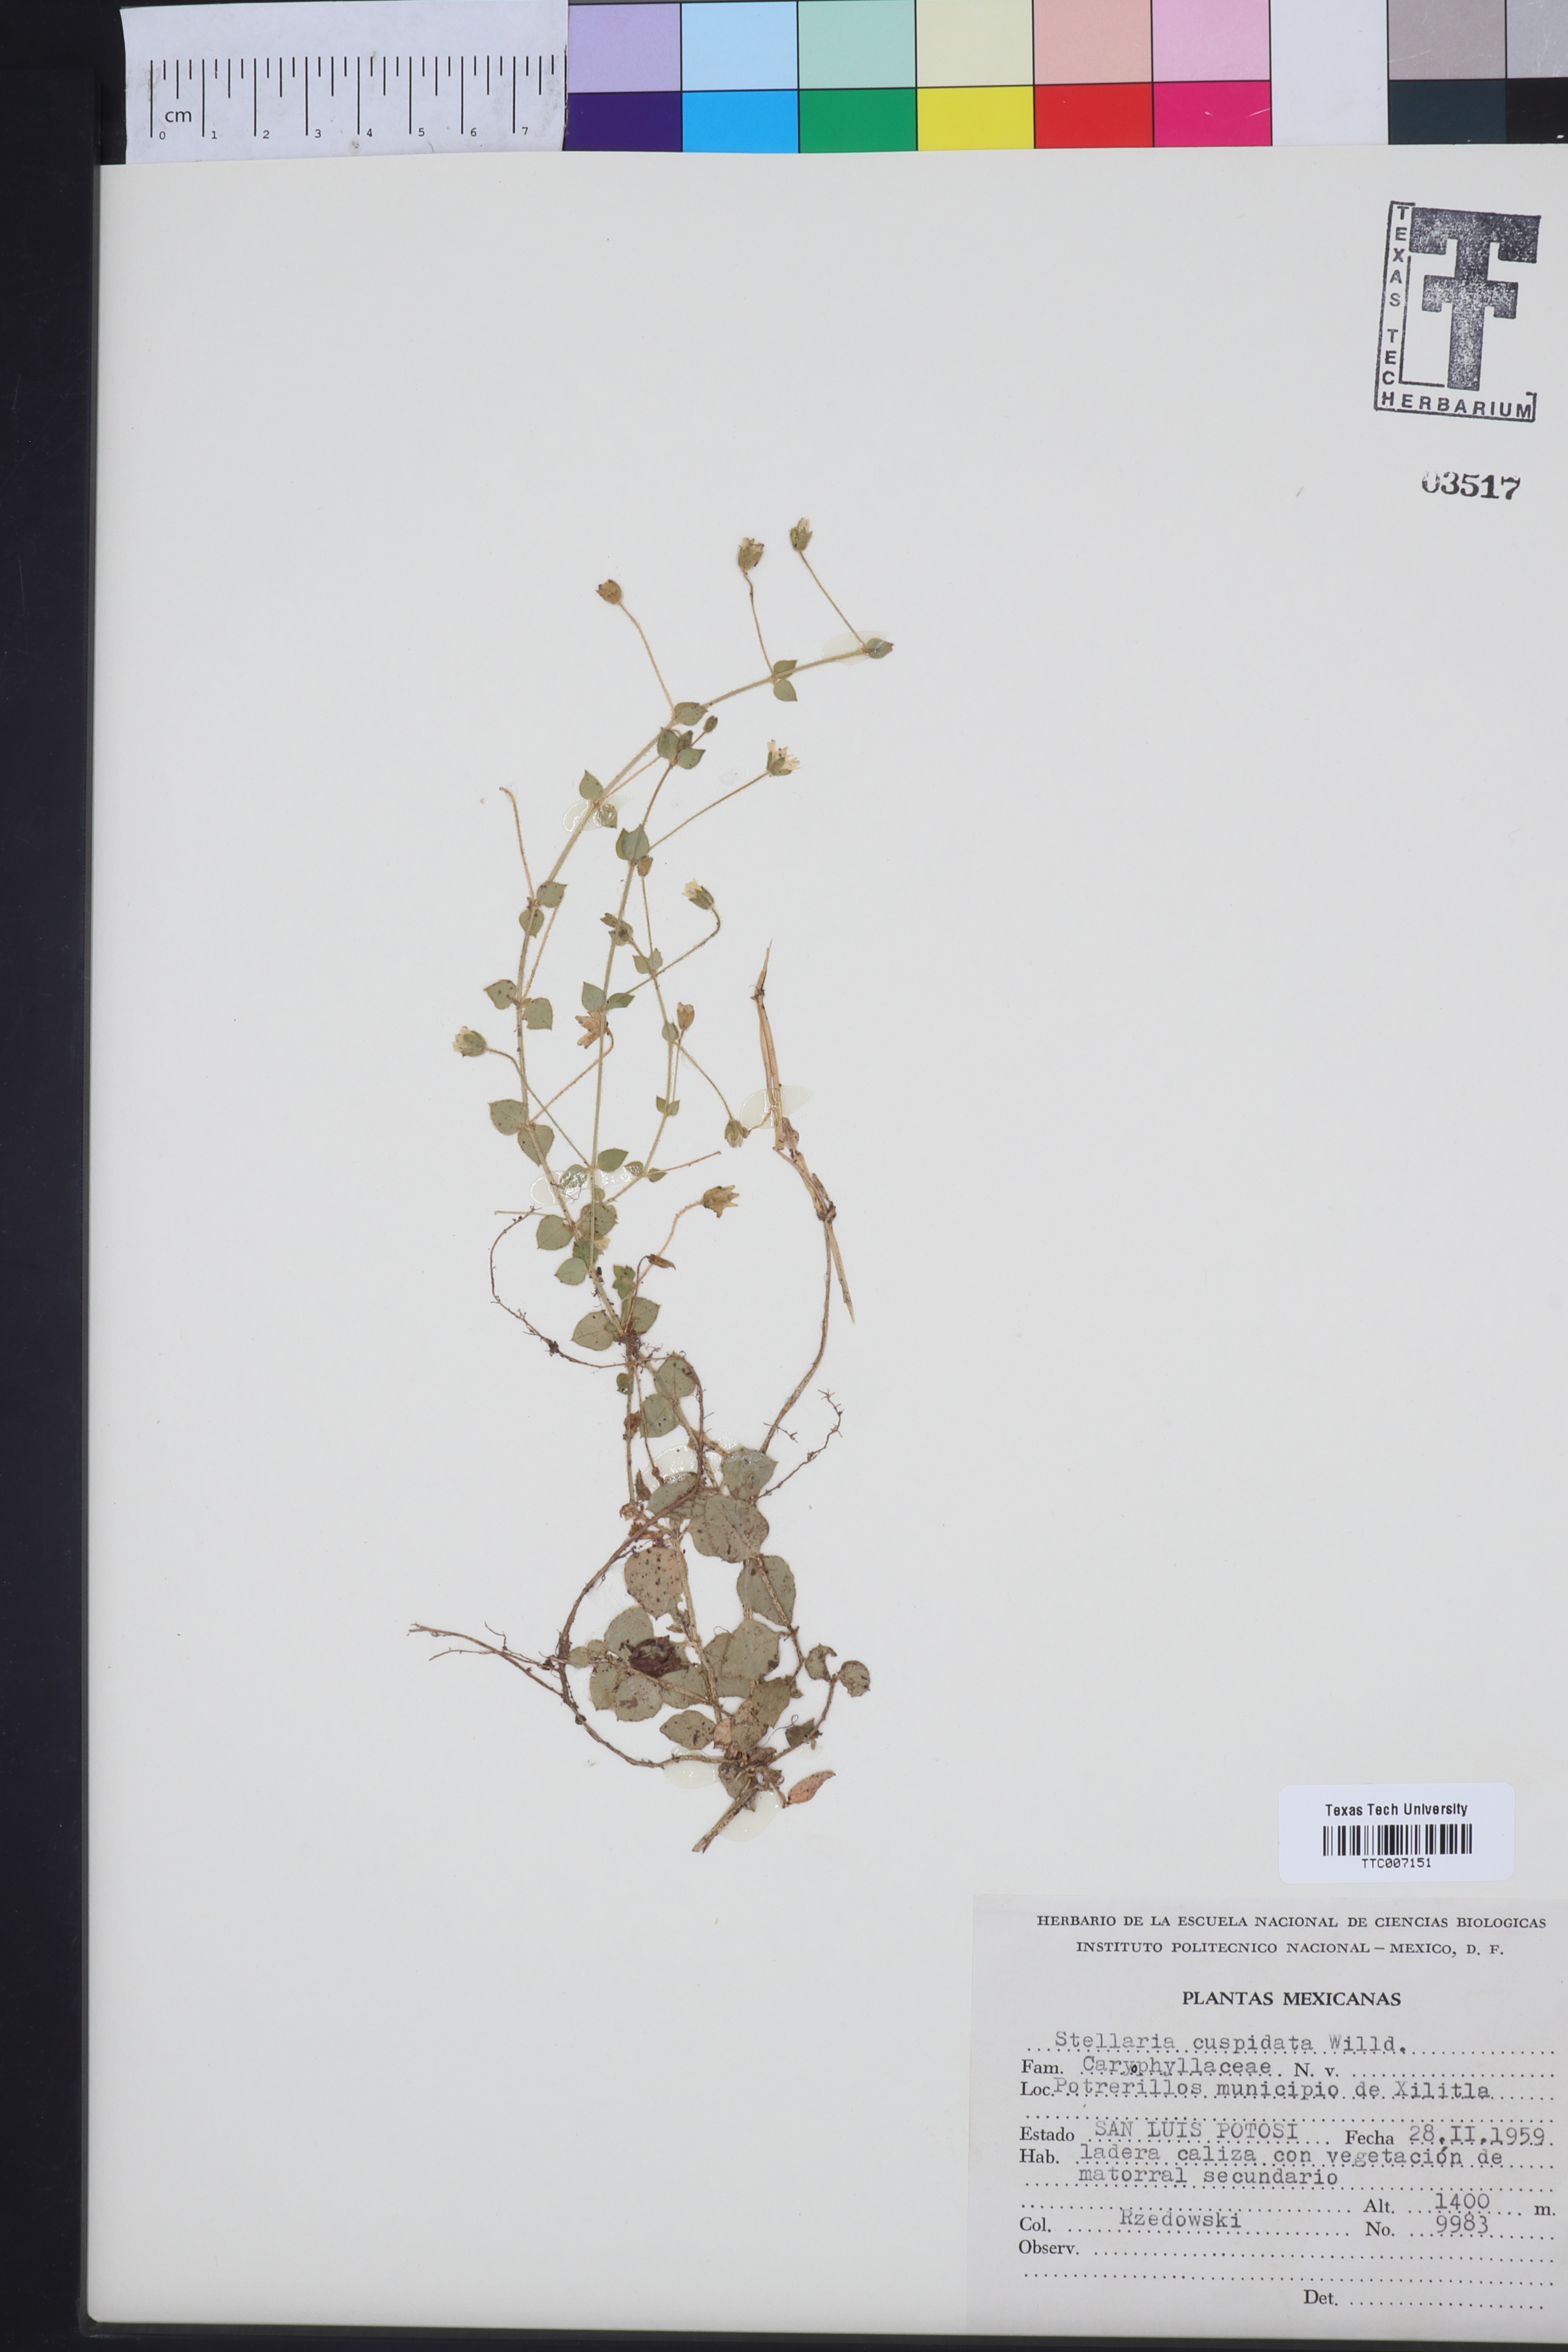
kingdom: Plantae
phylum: Tracheophyta
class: Magnoliopsida
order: Caryophyllales
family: Caryophyllaceae
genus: Stellaria
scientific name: Stellaria cuspidata
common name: Mexican chickweed
